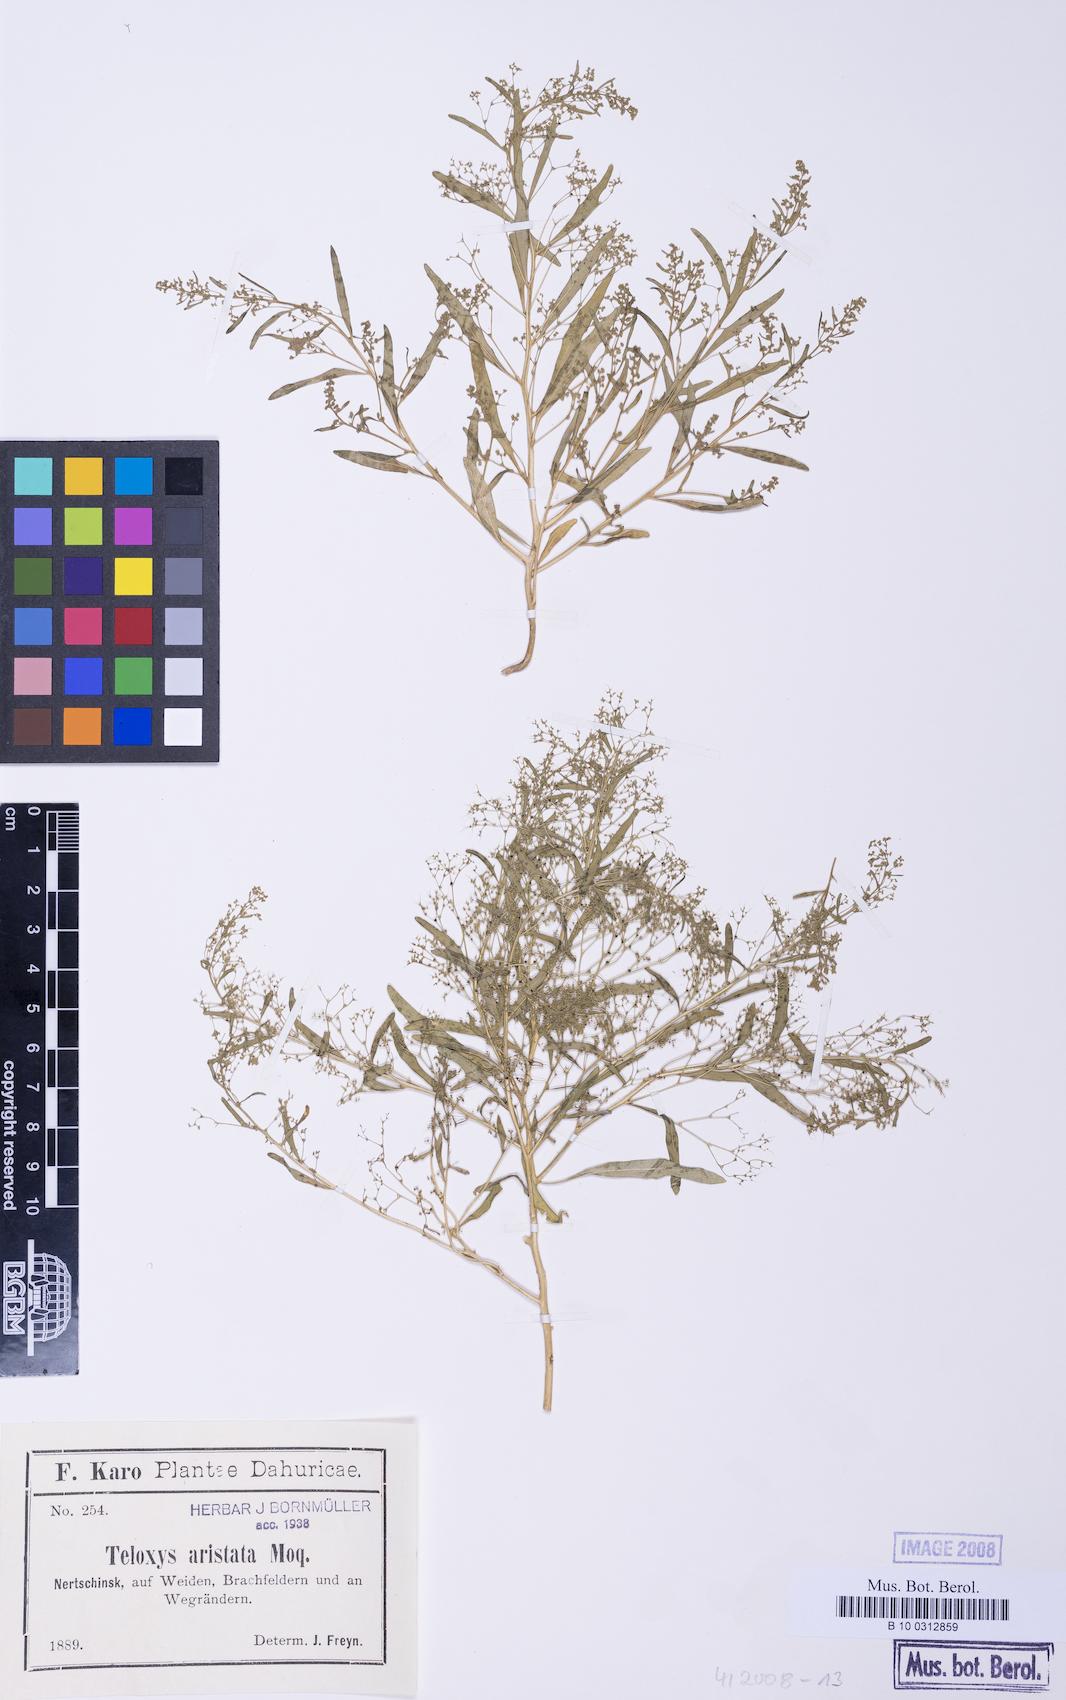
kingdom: Plantae
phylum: Tracheophyta
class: Magnoliopsida
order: Caryophyllales
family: Amaranthaceae
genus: Teloxys
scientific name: Teloxys aristata
